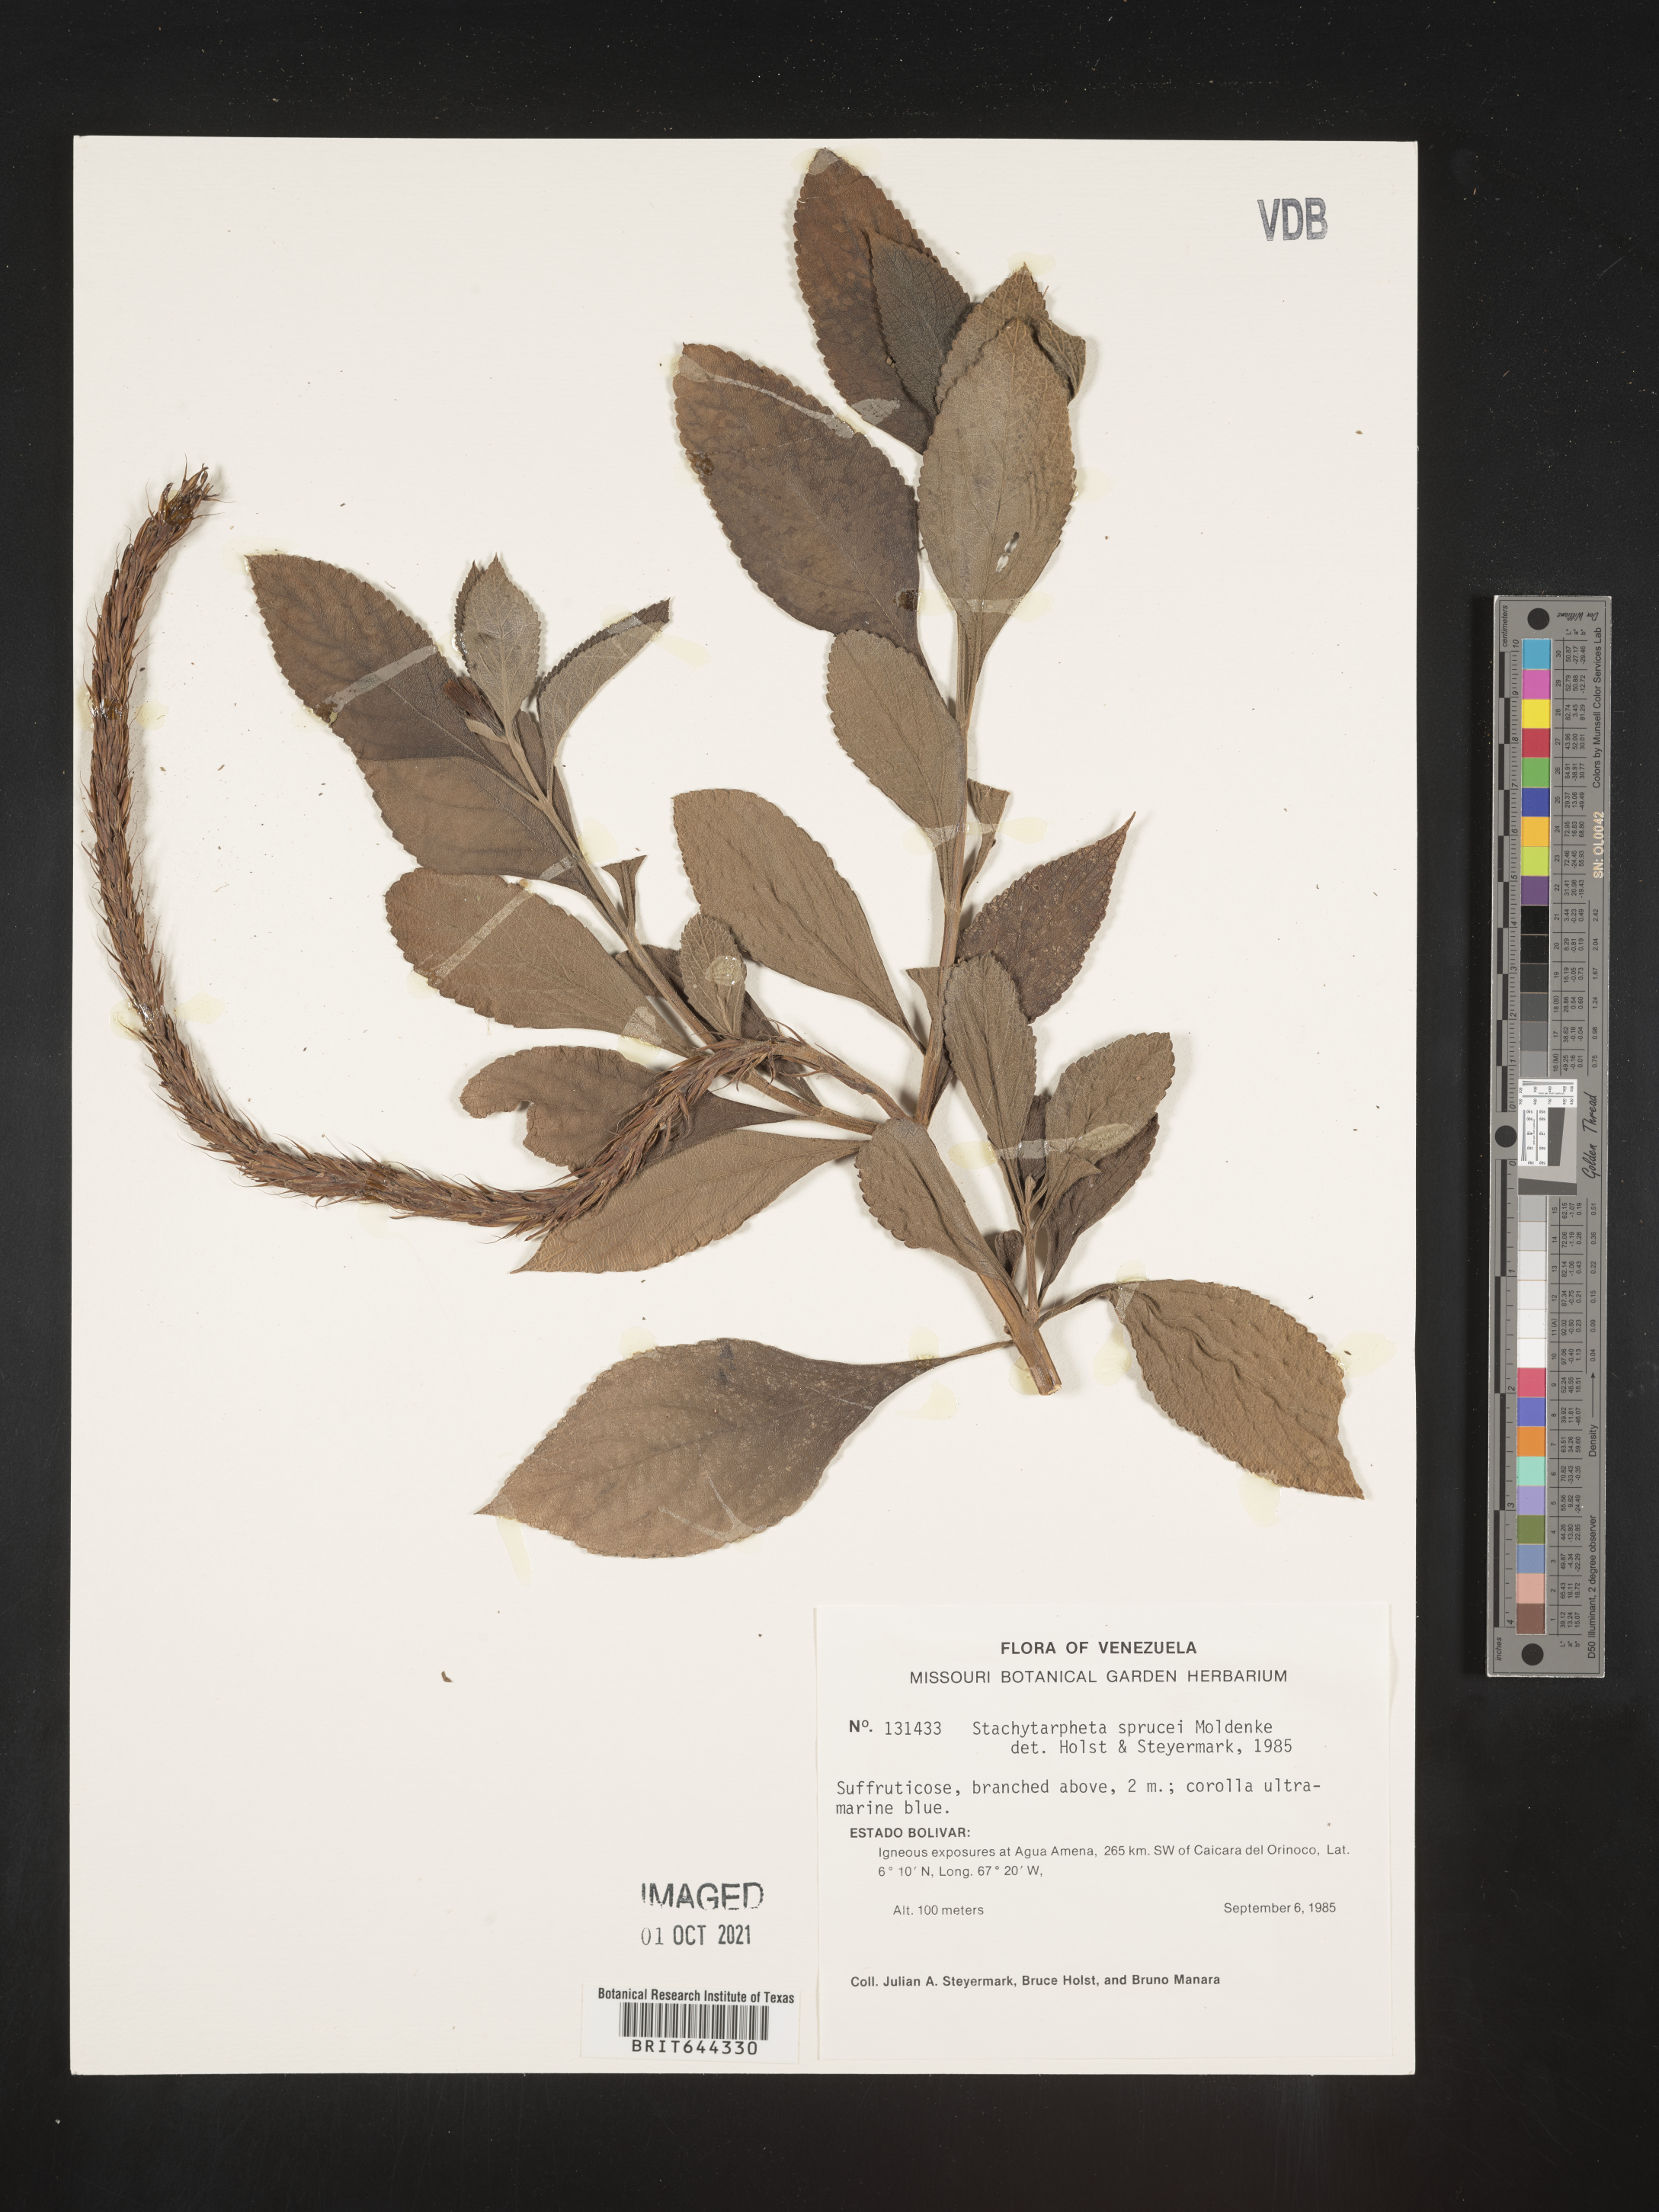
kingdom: Plantae
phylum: Tracheophyta
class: Magnoliopsida
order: Lamiales
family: Verbenaceae
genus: Stachytarpheta
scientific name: Stachytarpheta
